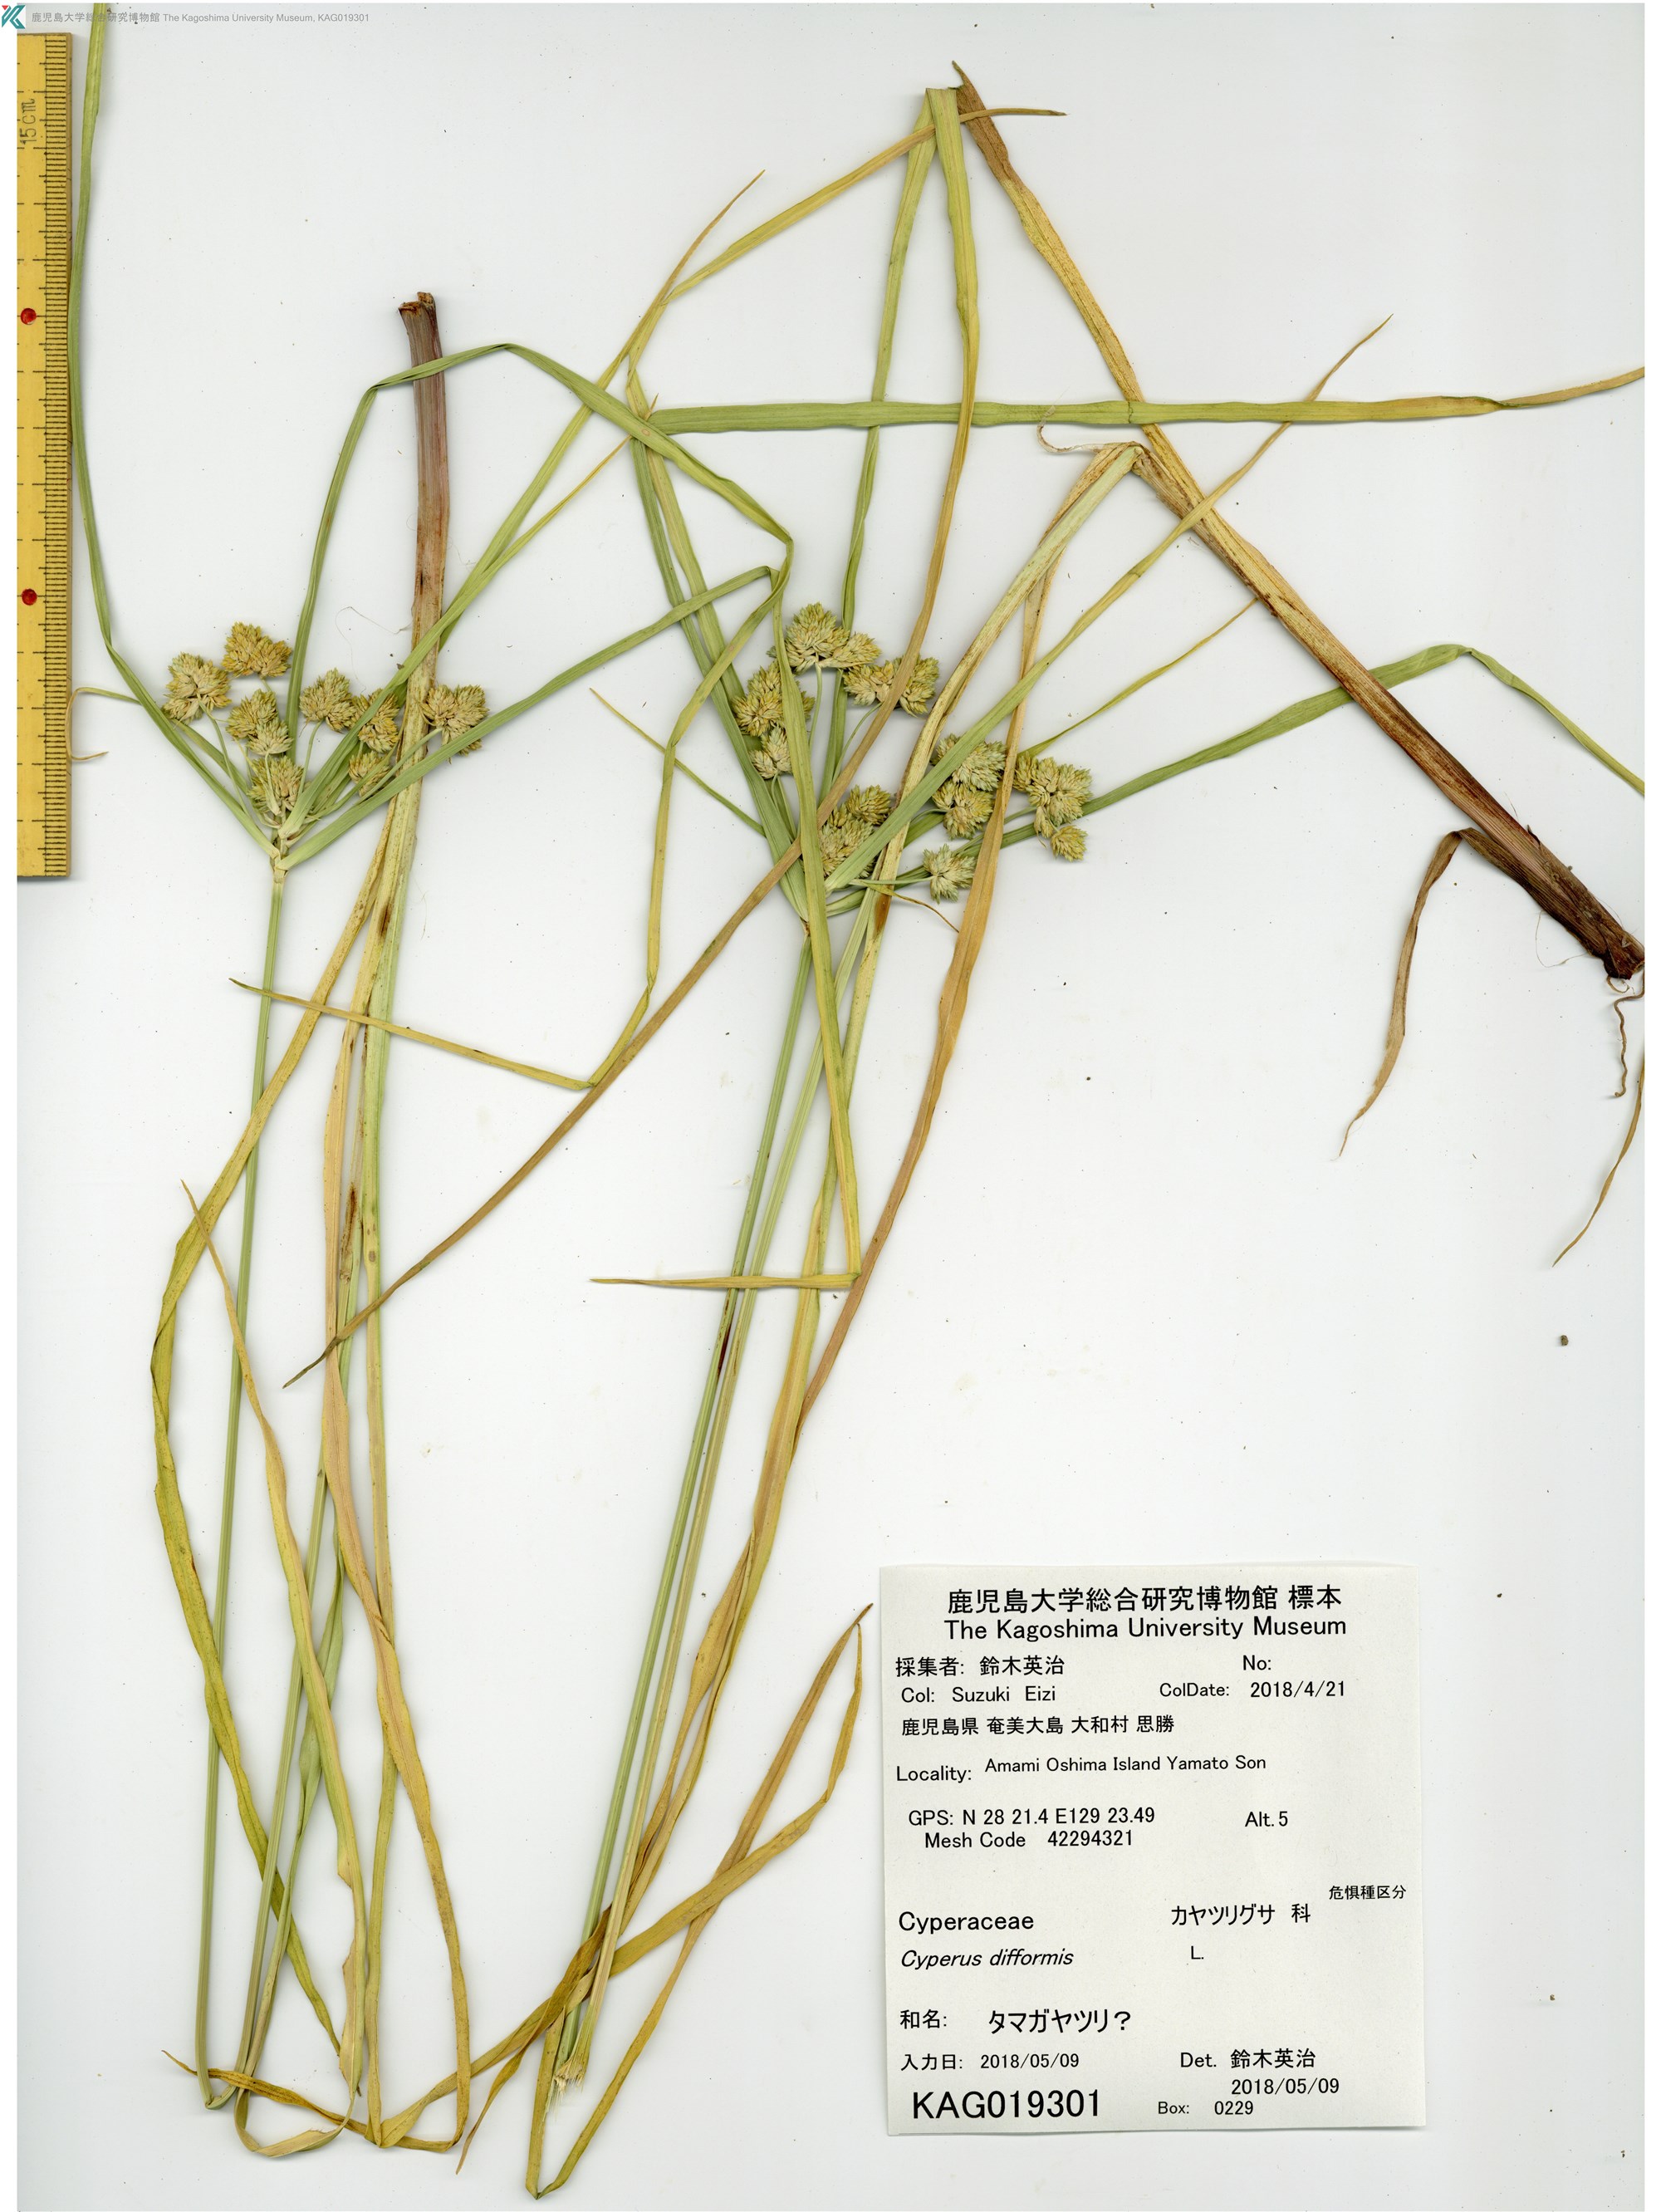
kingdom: Plantae
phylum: Tracheophyta
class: Liliopsida
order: Poales
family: Cyperaceae
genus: Cyperus
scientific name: Cyperus eragrostis
